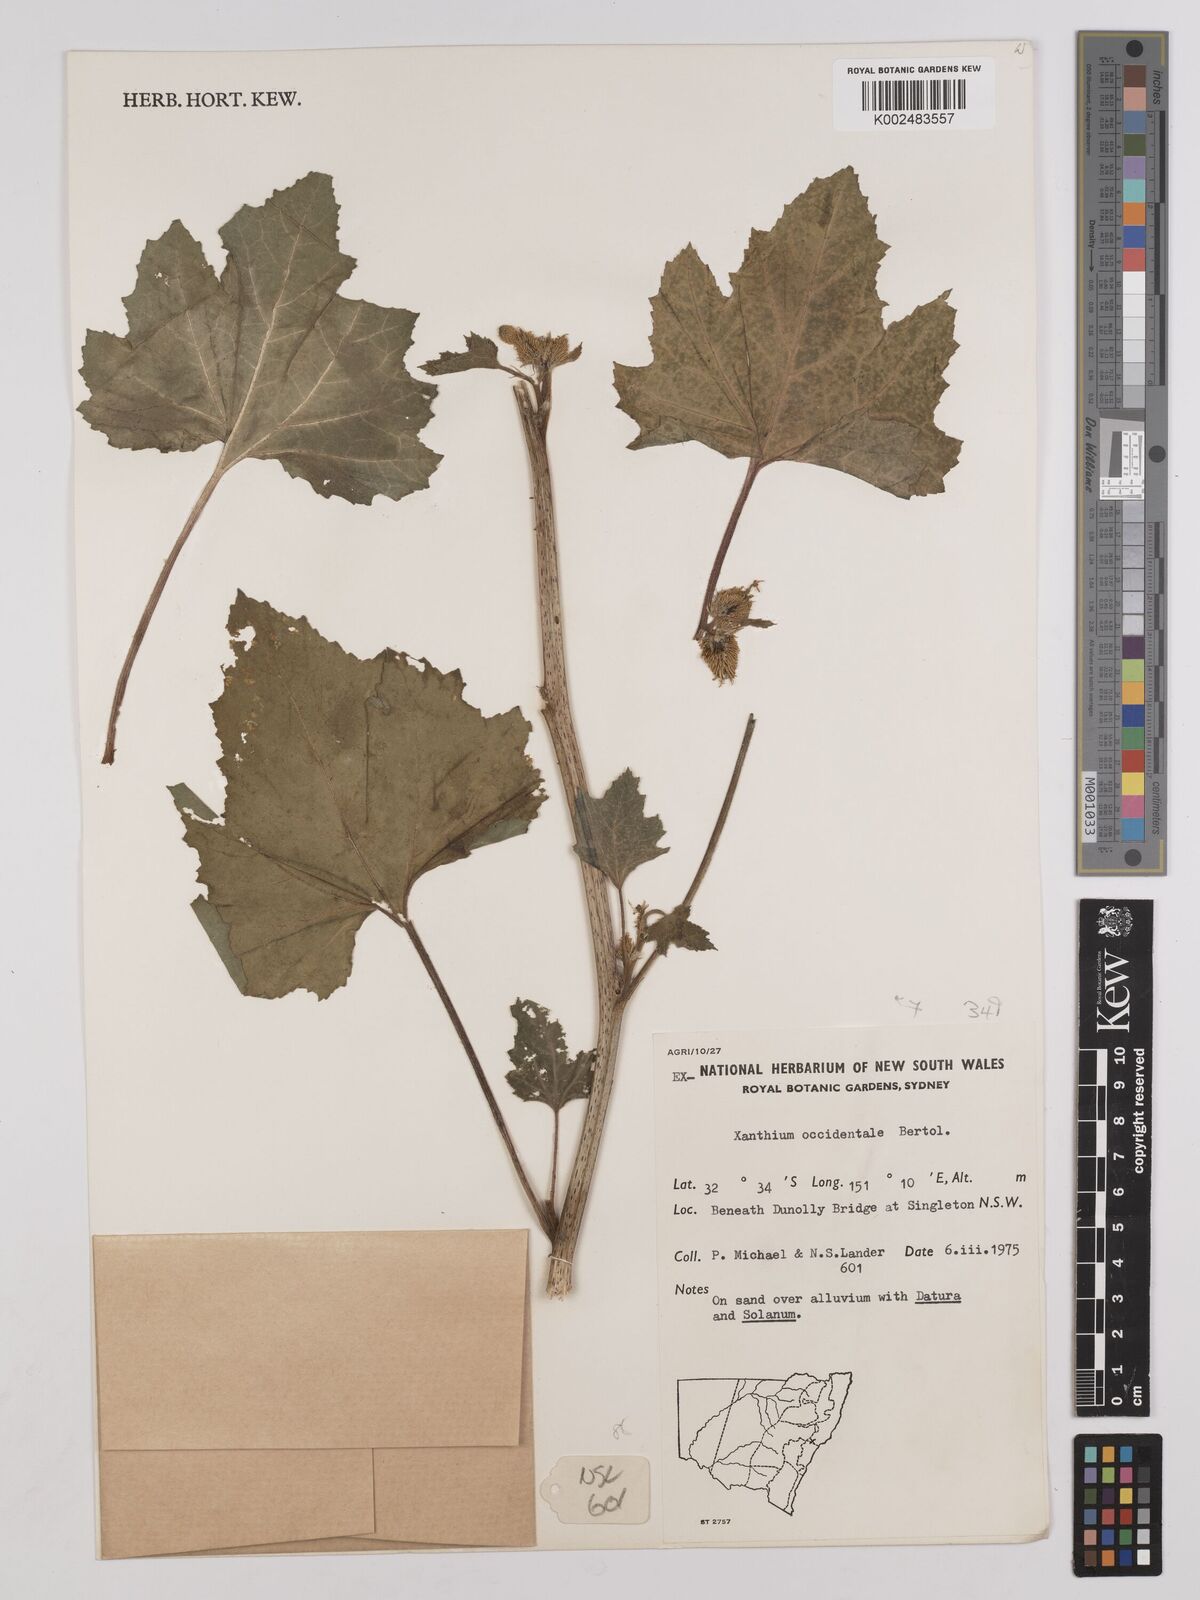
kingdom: Plantae
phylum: Tracheophyta
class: Magnoliopsida
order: Asterales
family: Asteraceae
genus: Xanthium
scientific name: Xanthium occidentale
